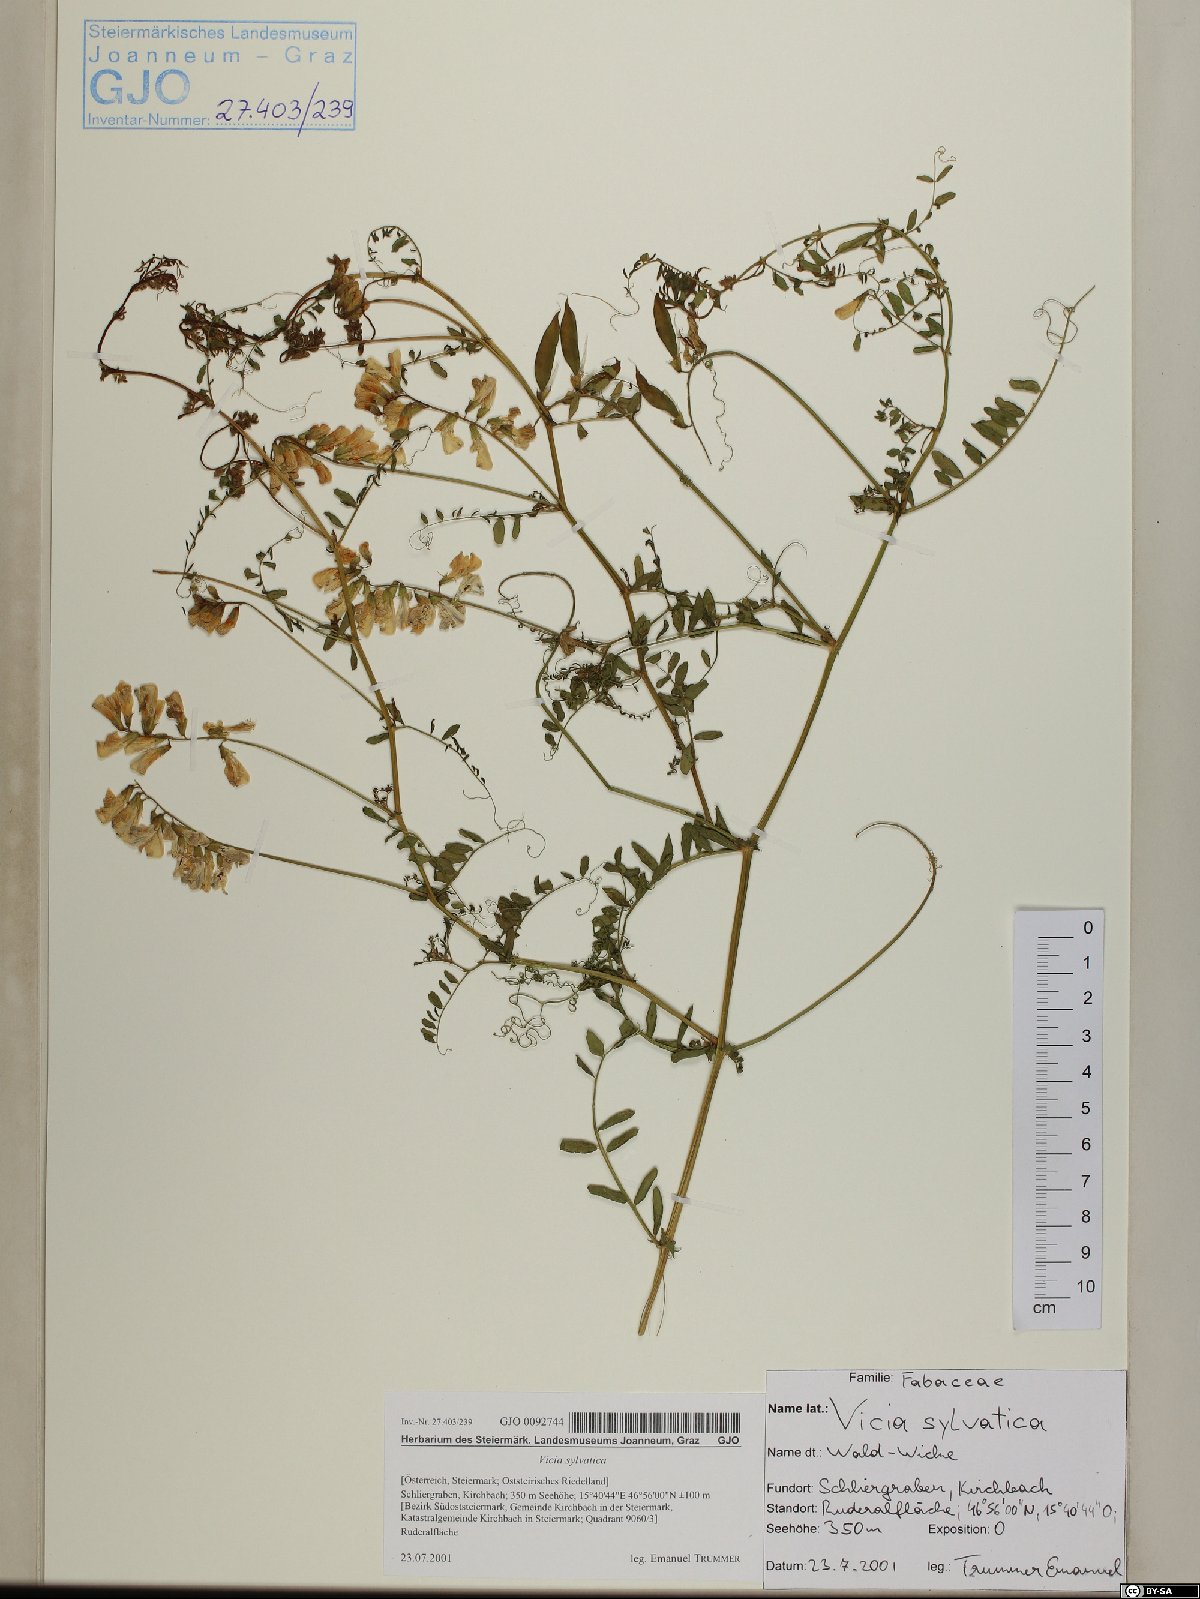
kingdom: Plantae
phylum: Tracheophyta
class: Magnoliopsida
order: Fabales
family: Fabaceae
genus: Vicia
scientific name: Vicia sylvatica
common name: Wood vetch
